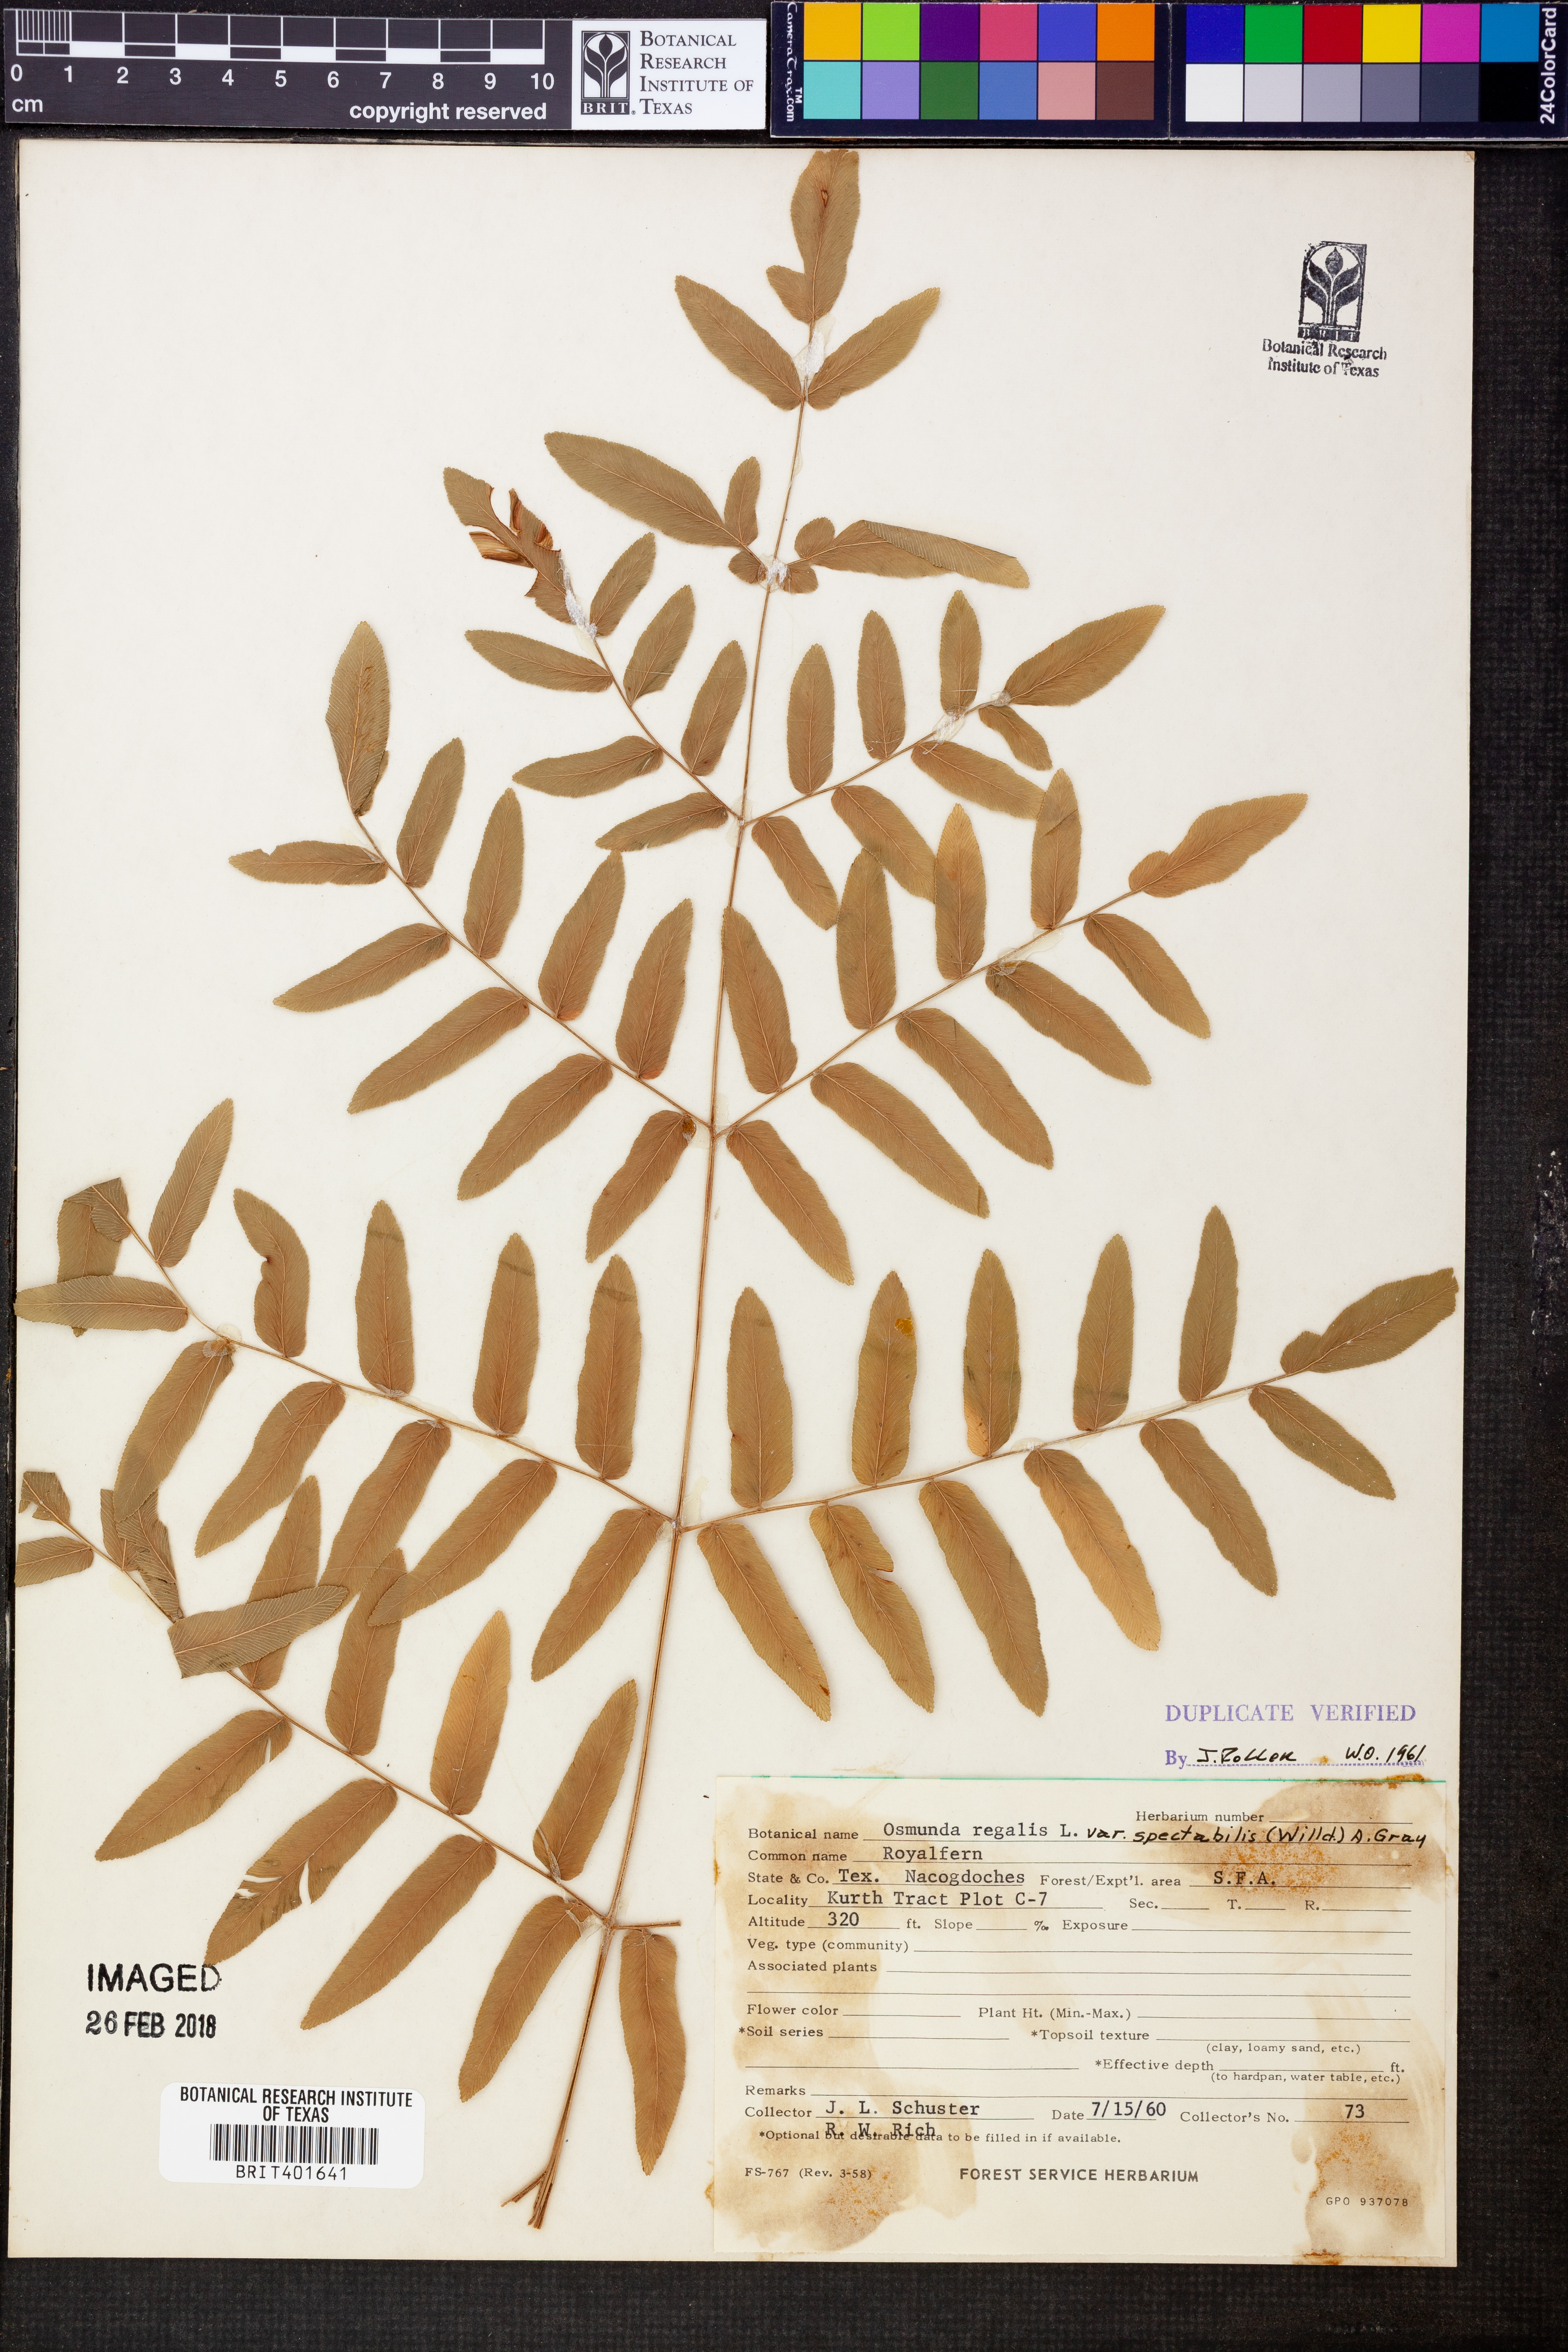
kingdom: Plantae
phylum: Tracheophyta
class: Polypodiopsida
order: Osmundales
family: Osmundaceae
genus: Osmunda
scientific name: Osmunda spectabilis
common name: American royal fern
